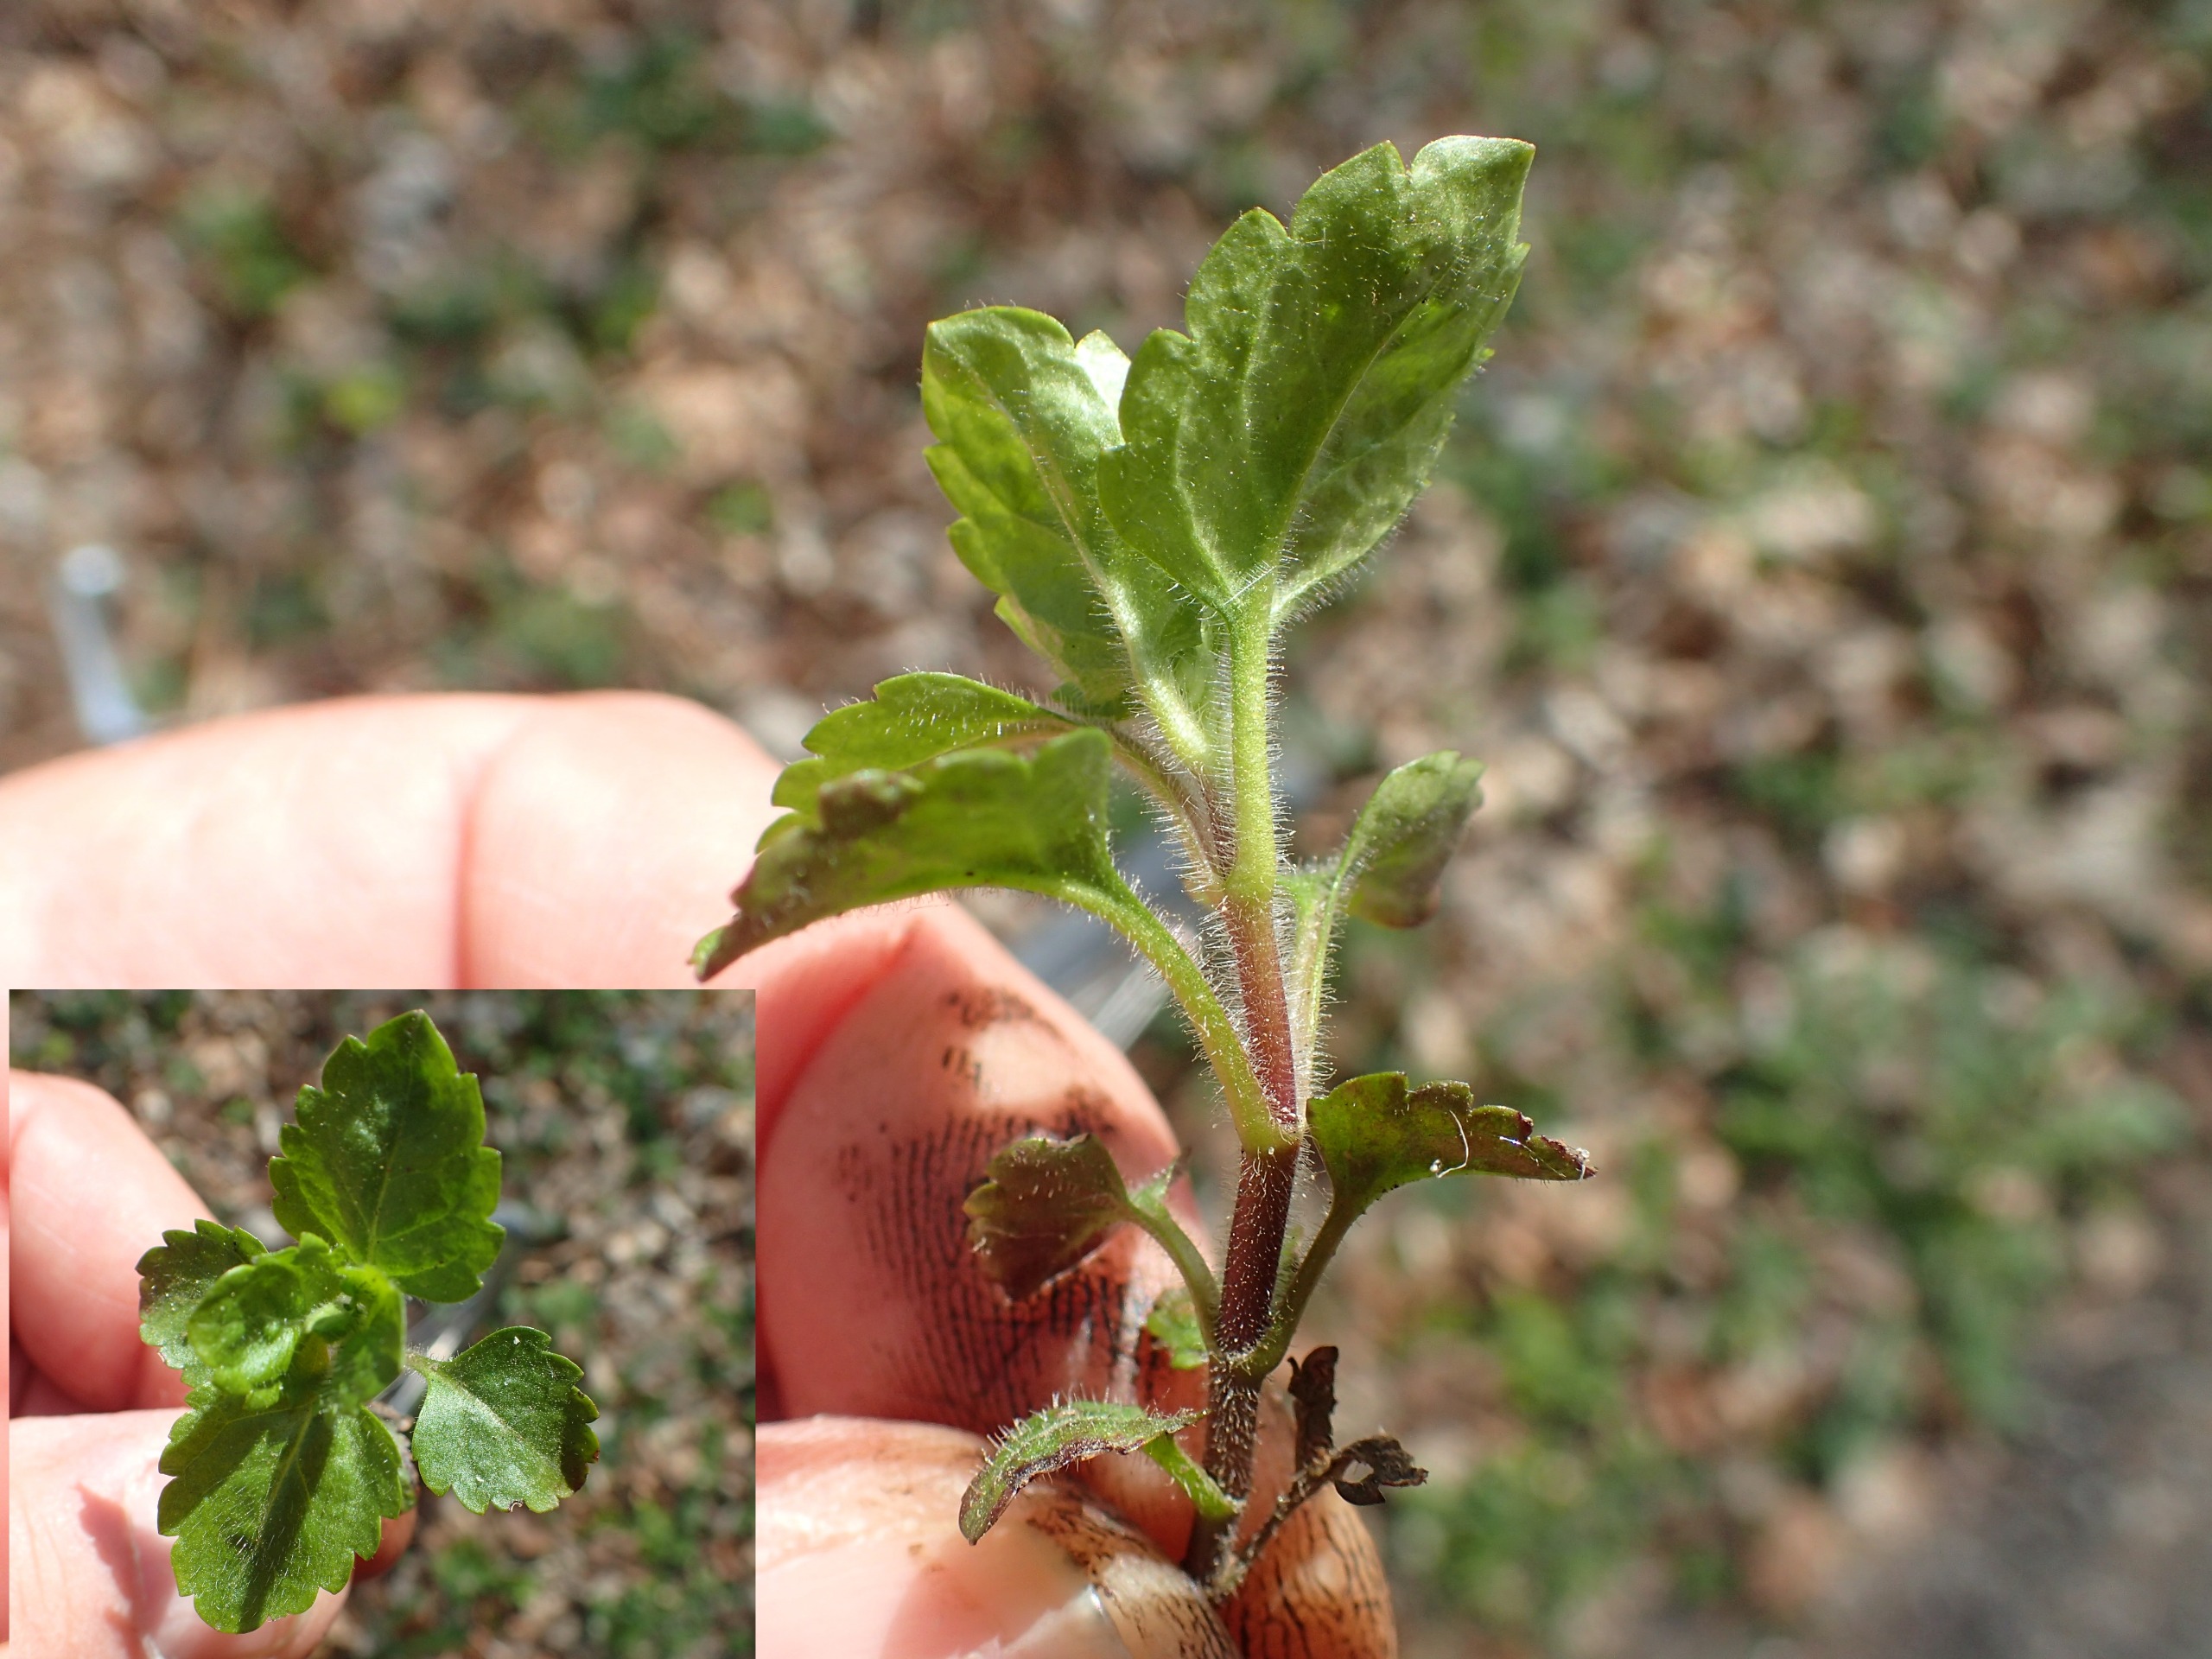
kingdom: Plantae
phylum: Tracheophyta
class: Magnoliopsida
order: Lamiales
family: Plantaginaceae
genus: Veronica
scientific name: Veronica montana
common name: Bjerg-ærenpris
